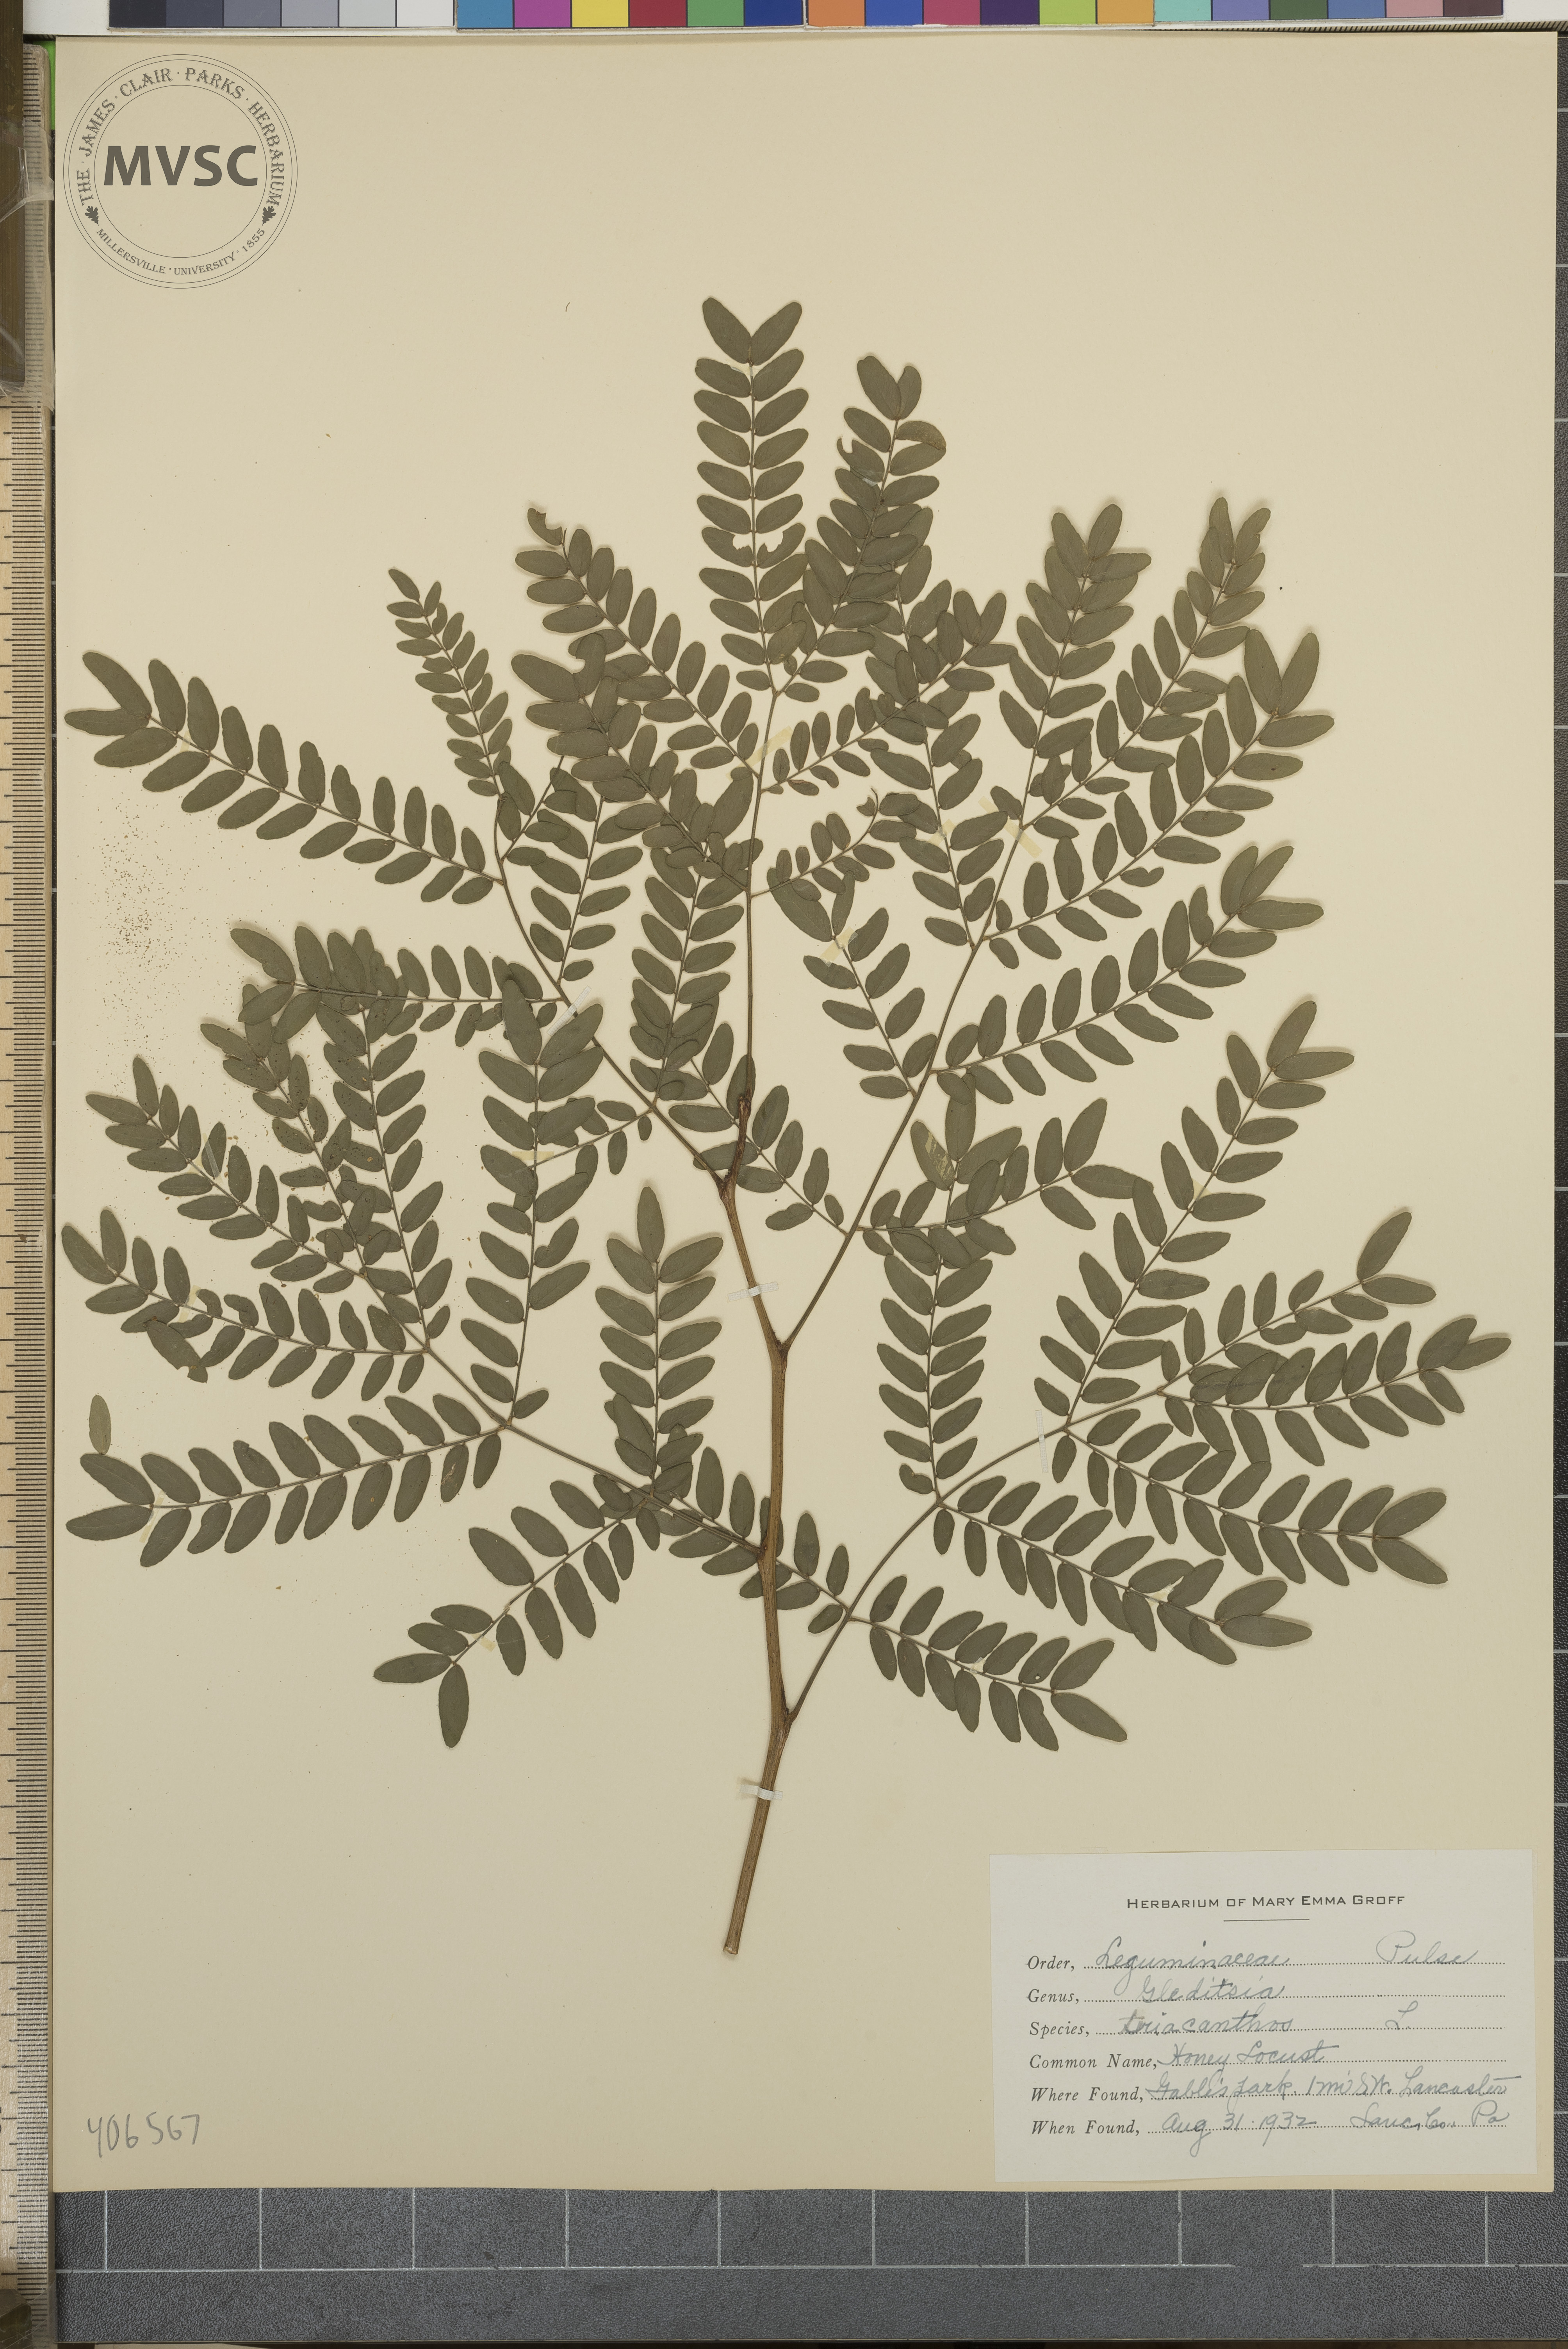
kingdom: Plantae
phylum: Tracheophyta
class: Magnoliopsida
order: Fabales
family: Fabaceae
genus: Gleditsia
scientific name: Gleditsia triacanthos
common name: Honey Locust
